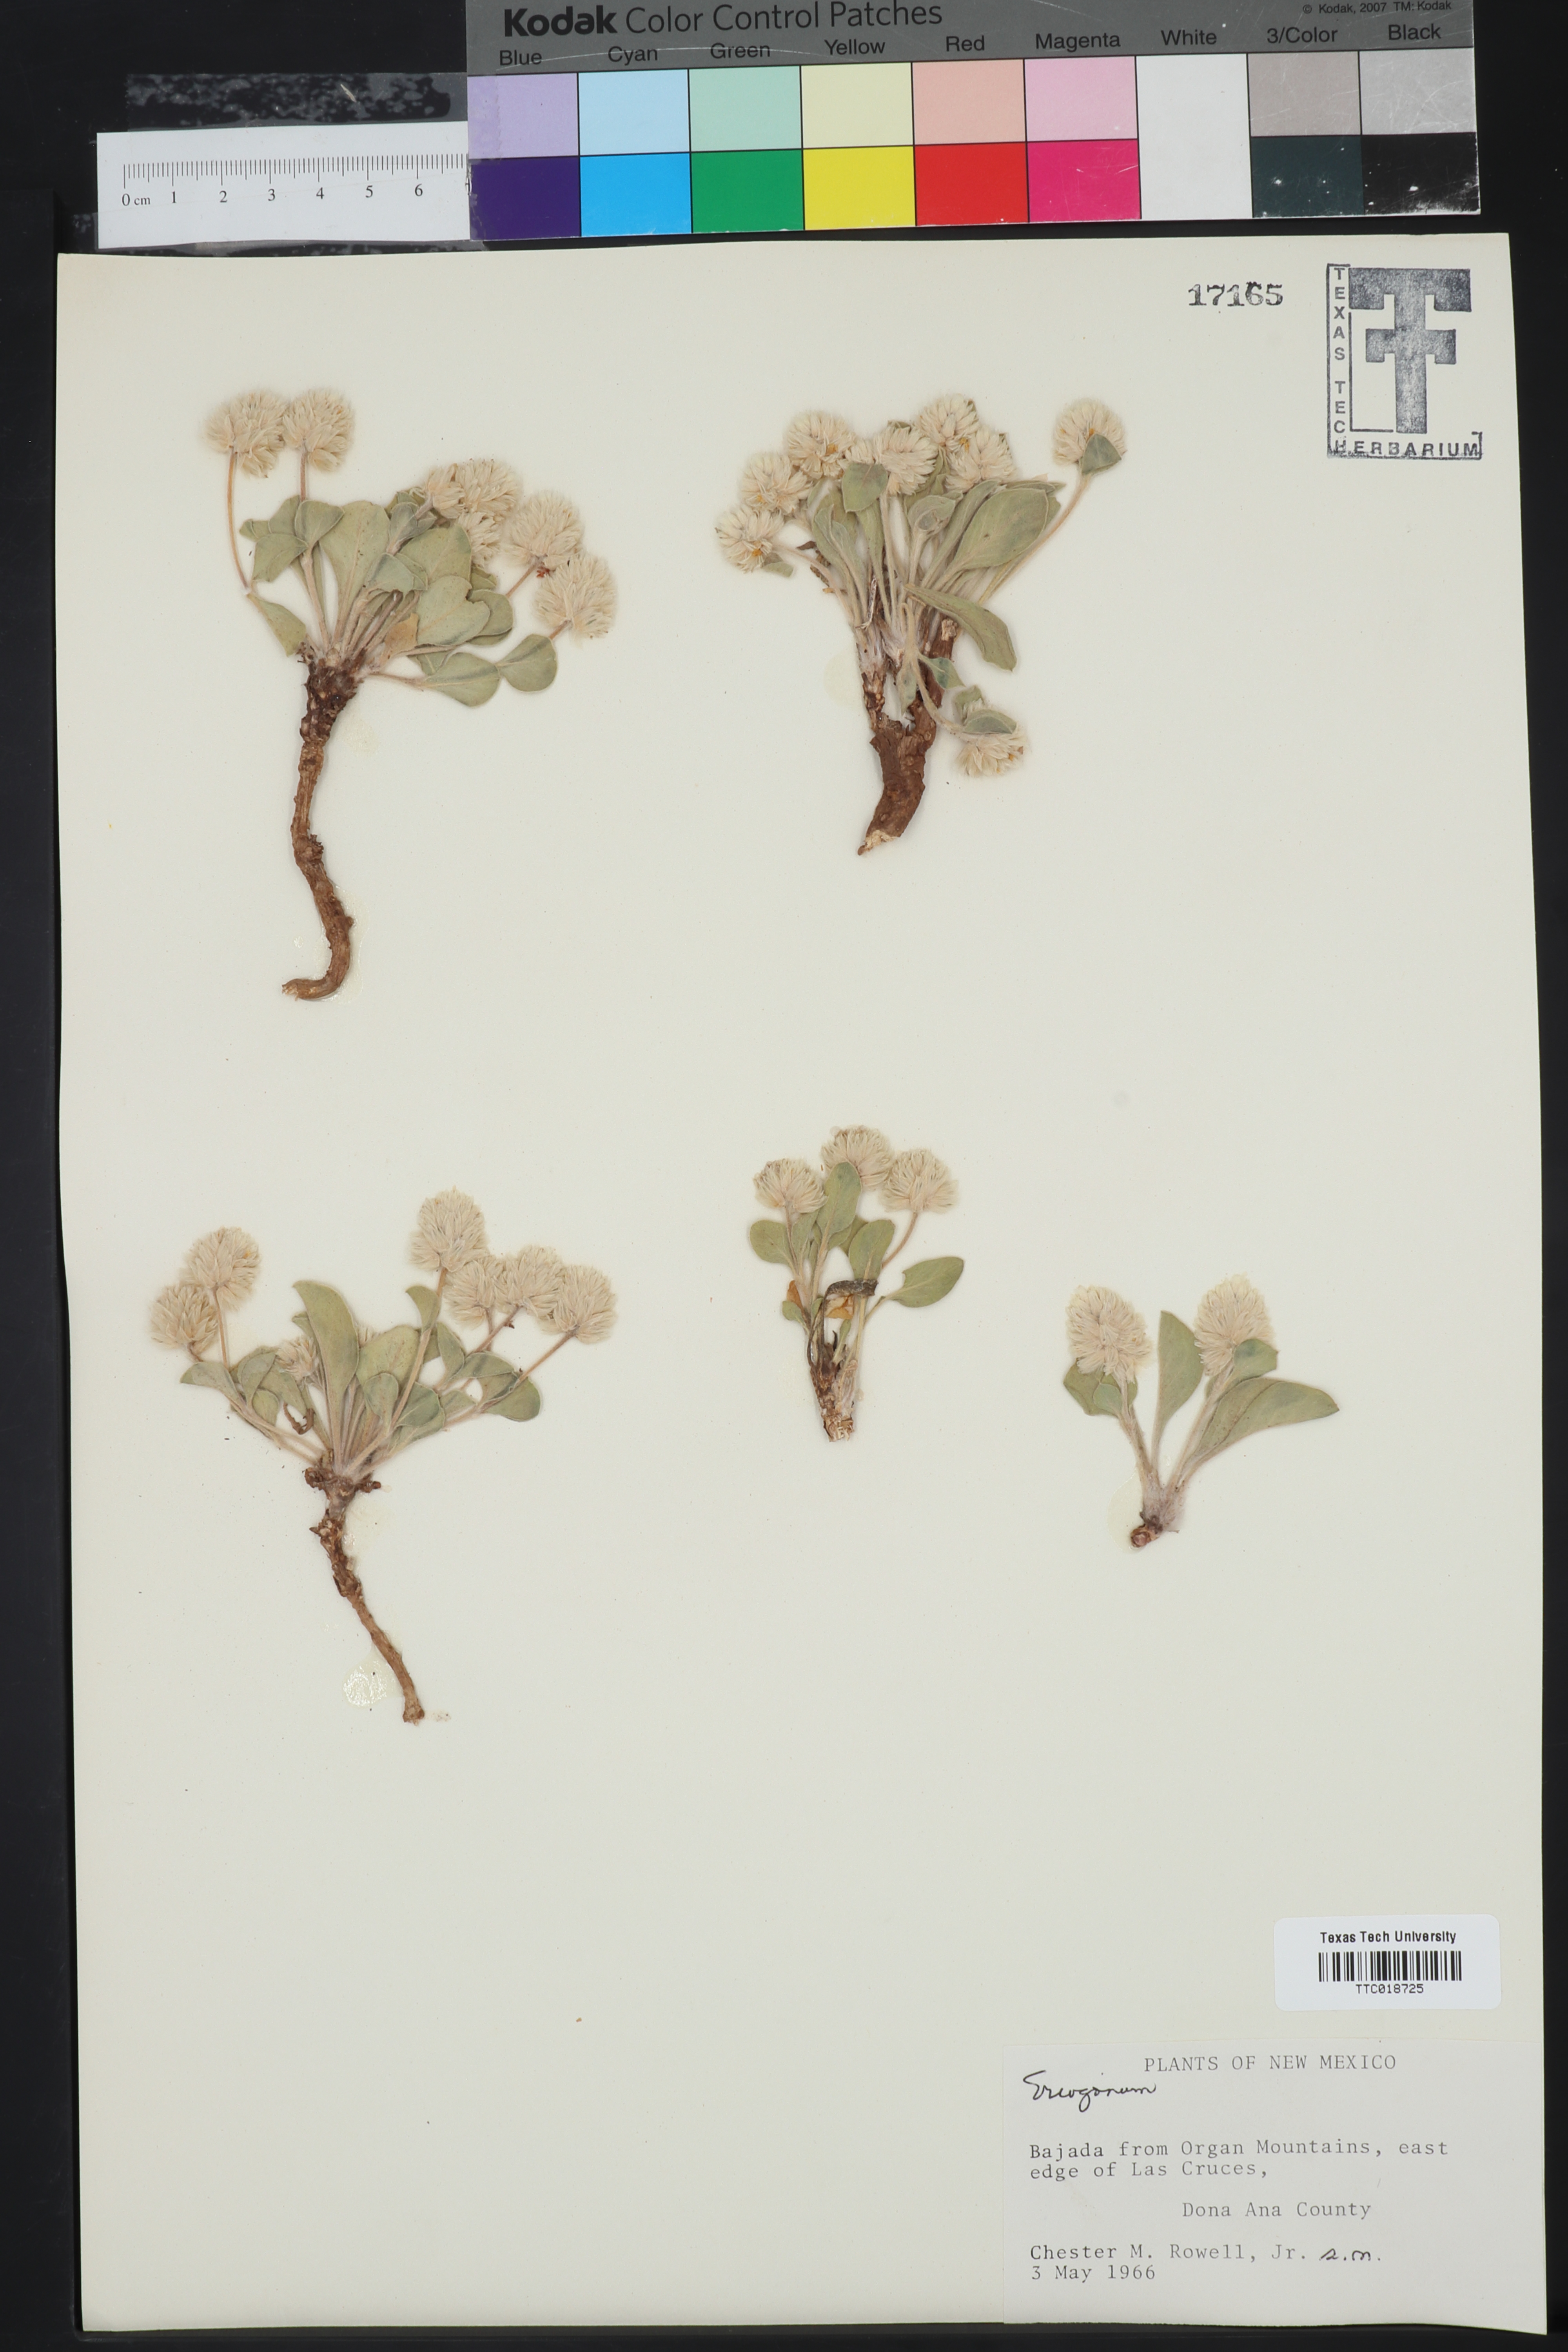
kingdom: Plantae
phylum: Tracheophyta
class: Magnoliopsida
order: Caryophyllales
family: Polygonaceae
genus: Eriogonum
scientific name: Eriogonum
